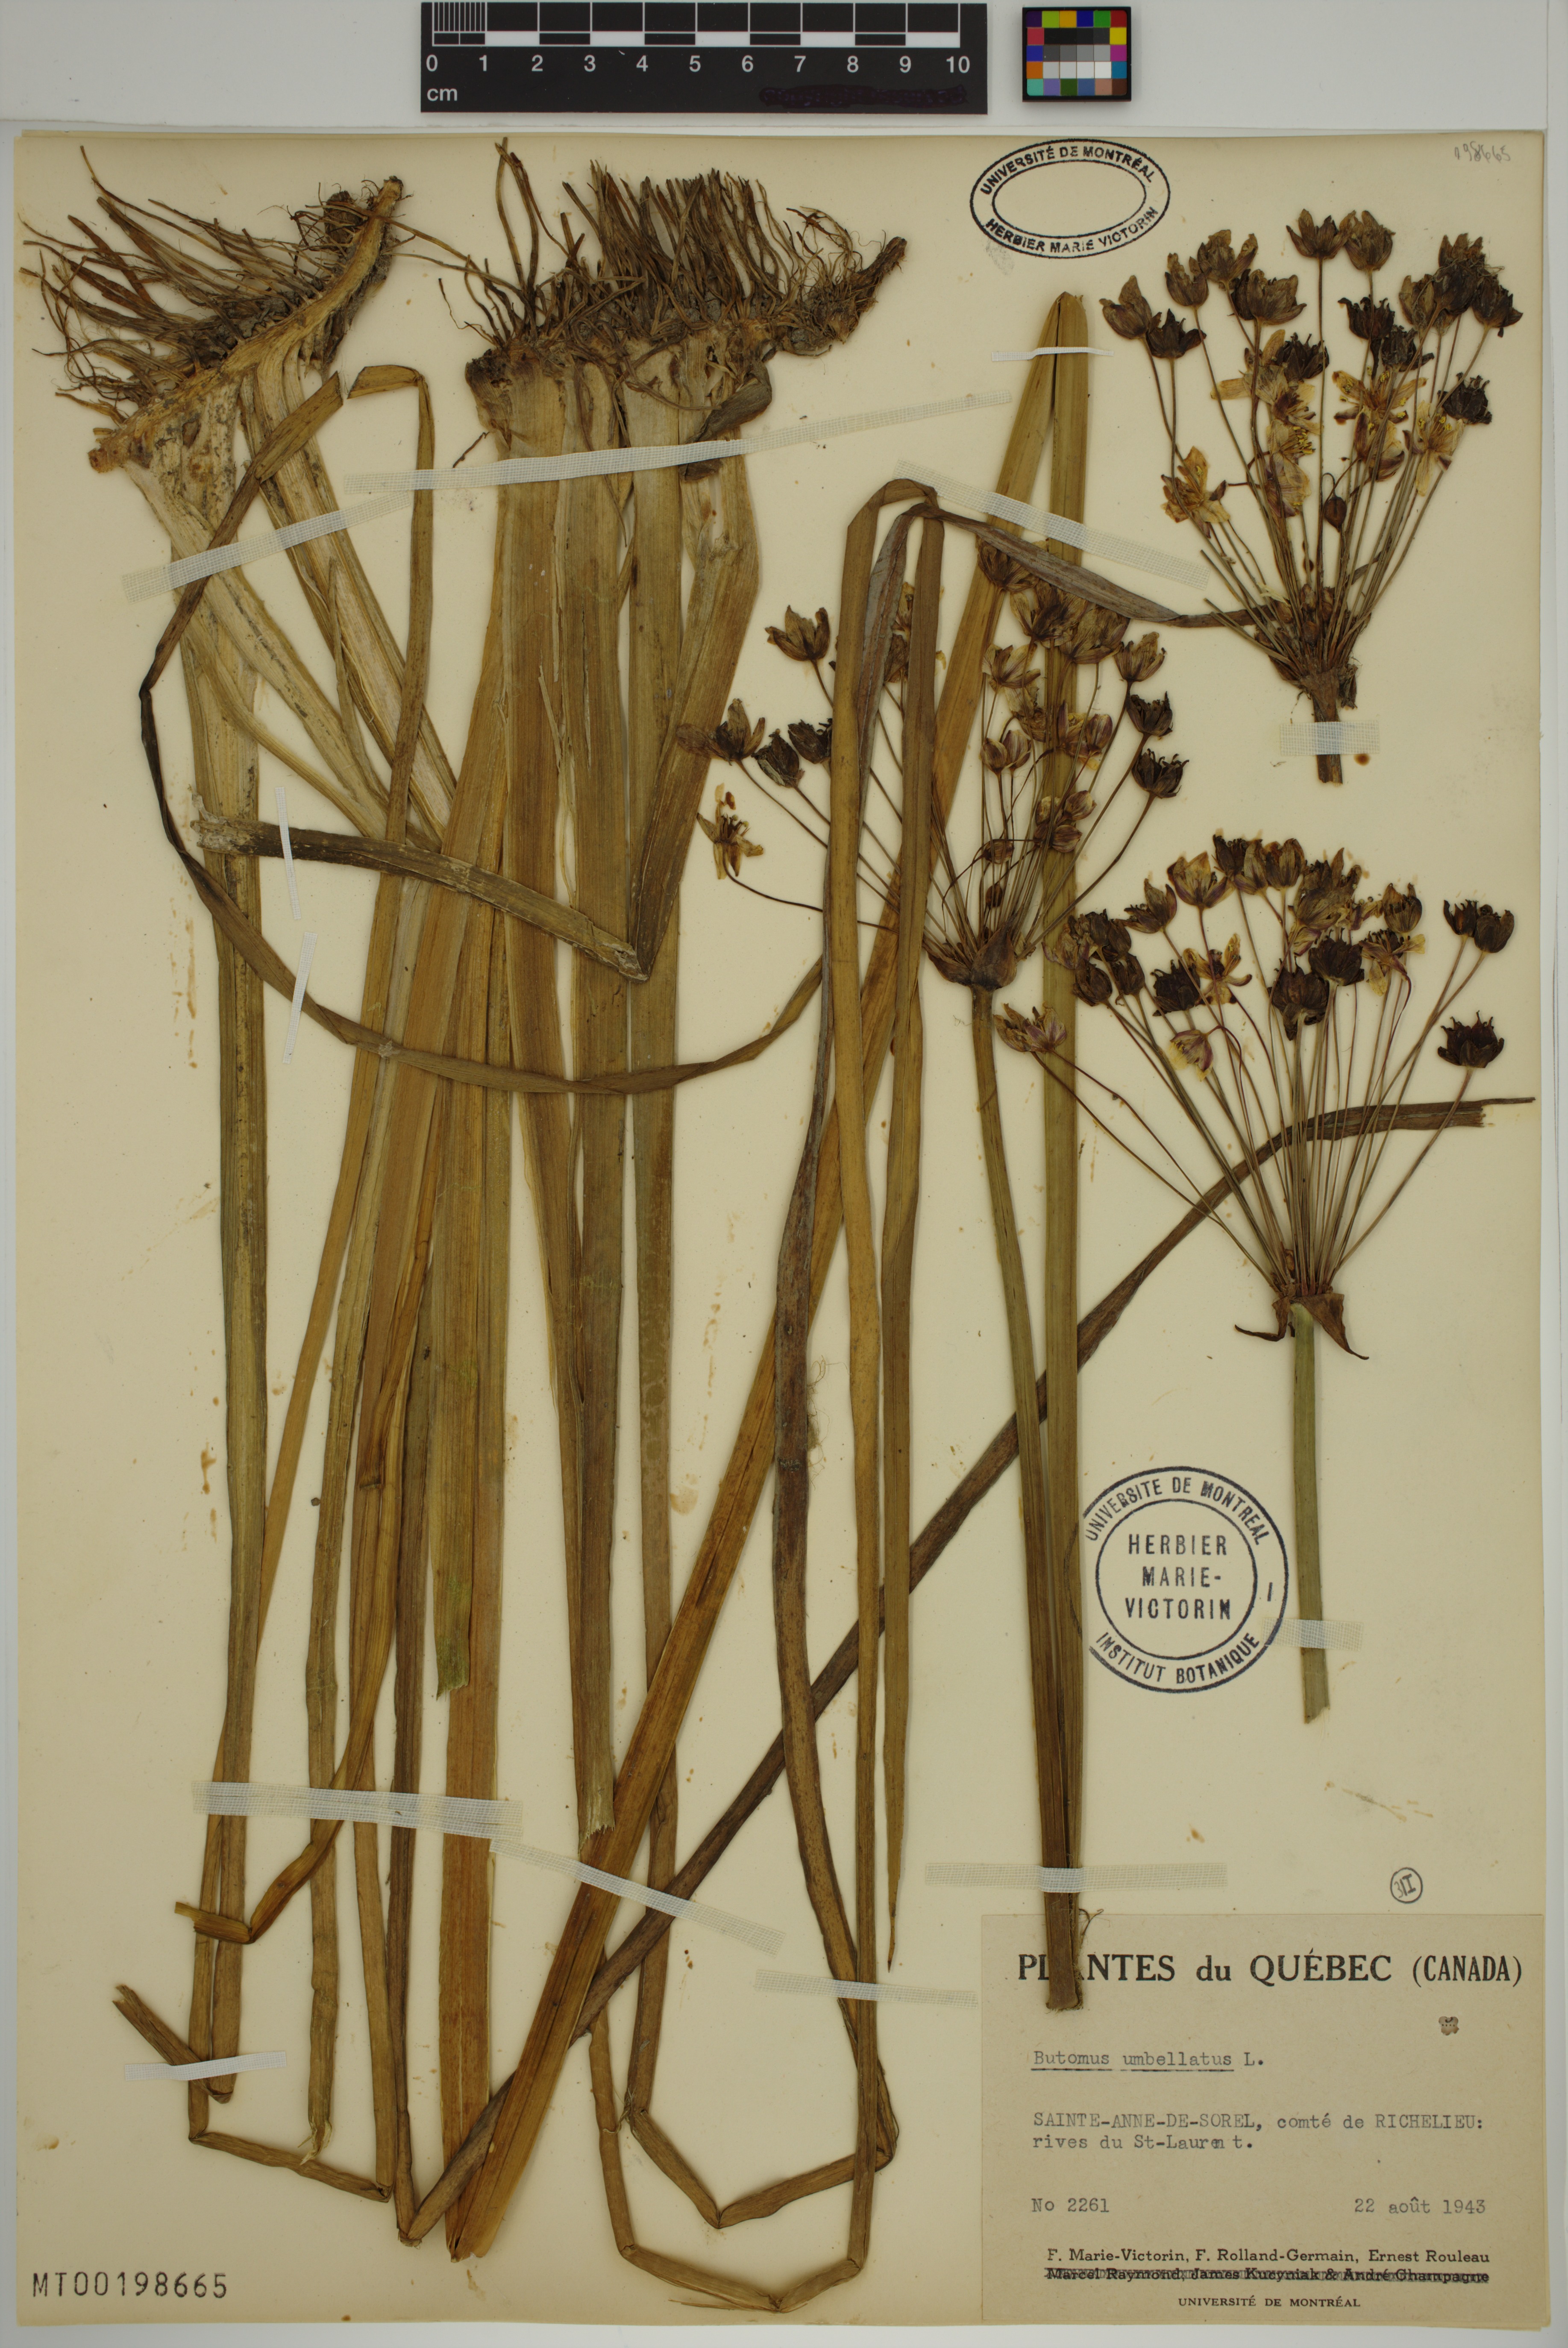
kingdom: Plantae
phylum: Tracheophyta
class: Liliopsida
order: Alismatales
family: Butomaceae
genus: Butomus
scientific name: Butomus umbellatus
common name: Flowering-rush
